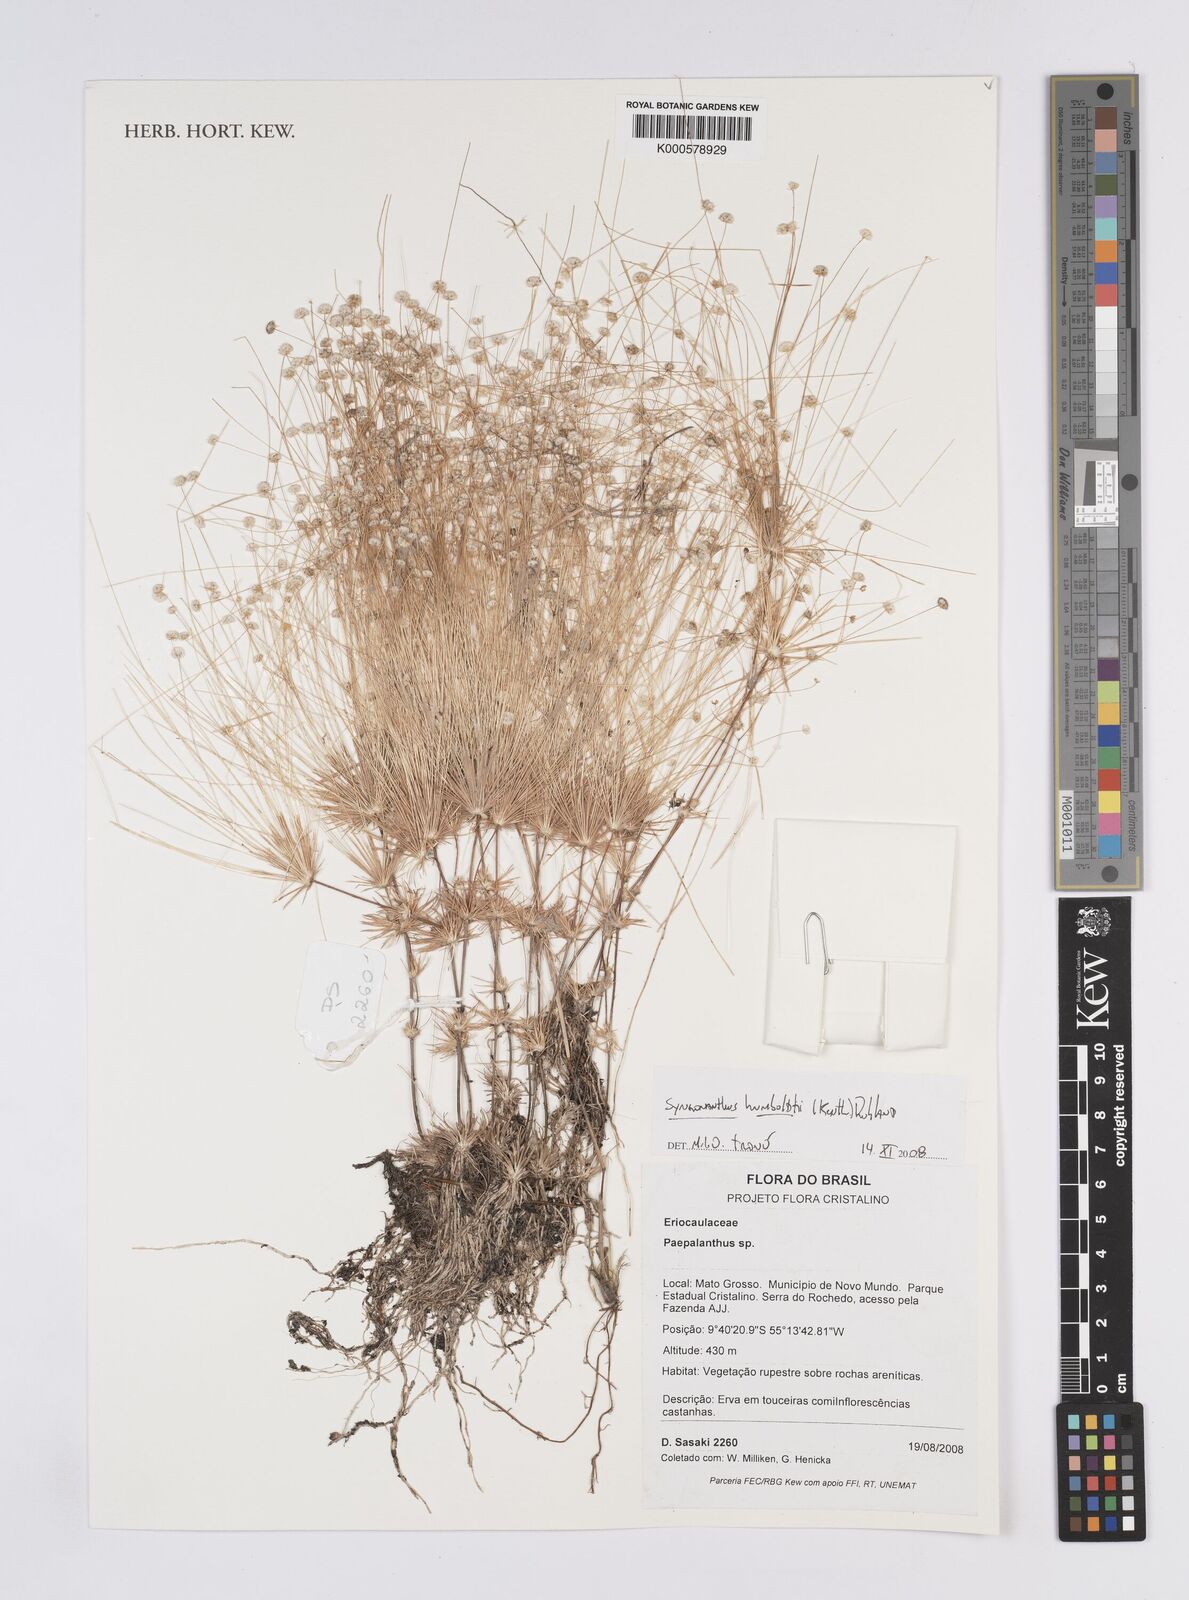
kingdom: Plantae
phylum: Tracheophyta
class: Liliopsida
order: Poales
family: Eriocaulaceae
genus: Syngonanthus
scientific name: Syngonanthus humboldtii
